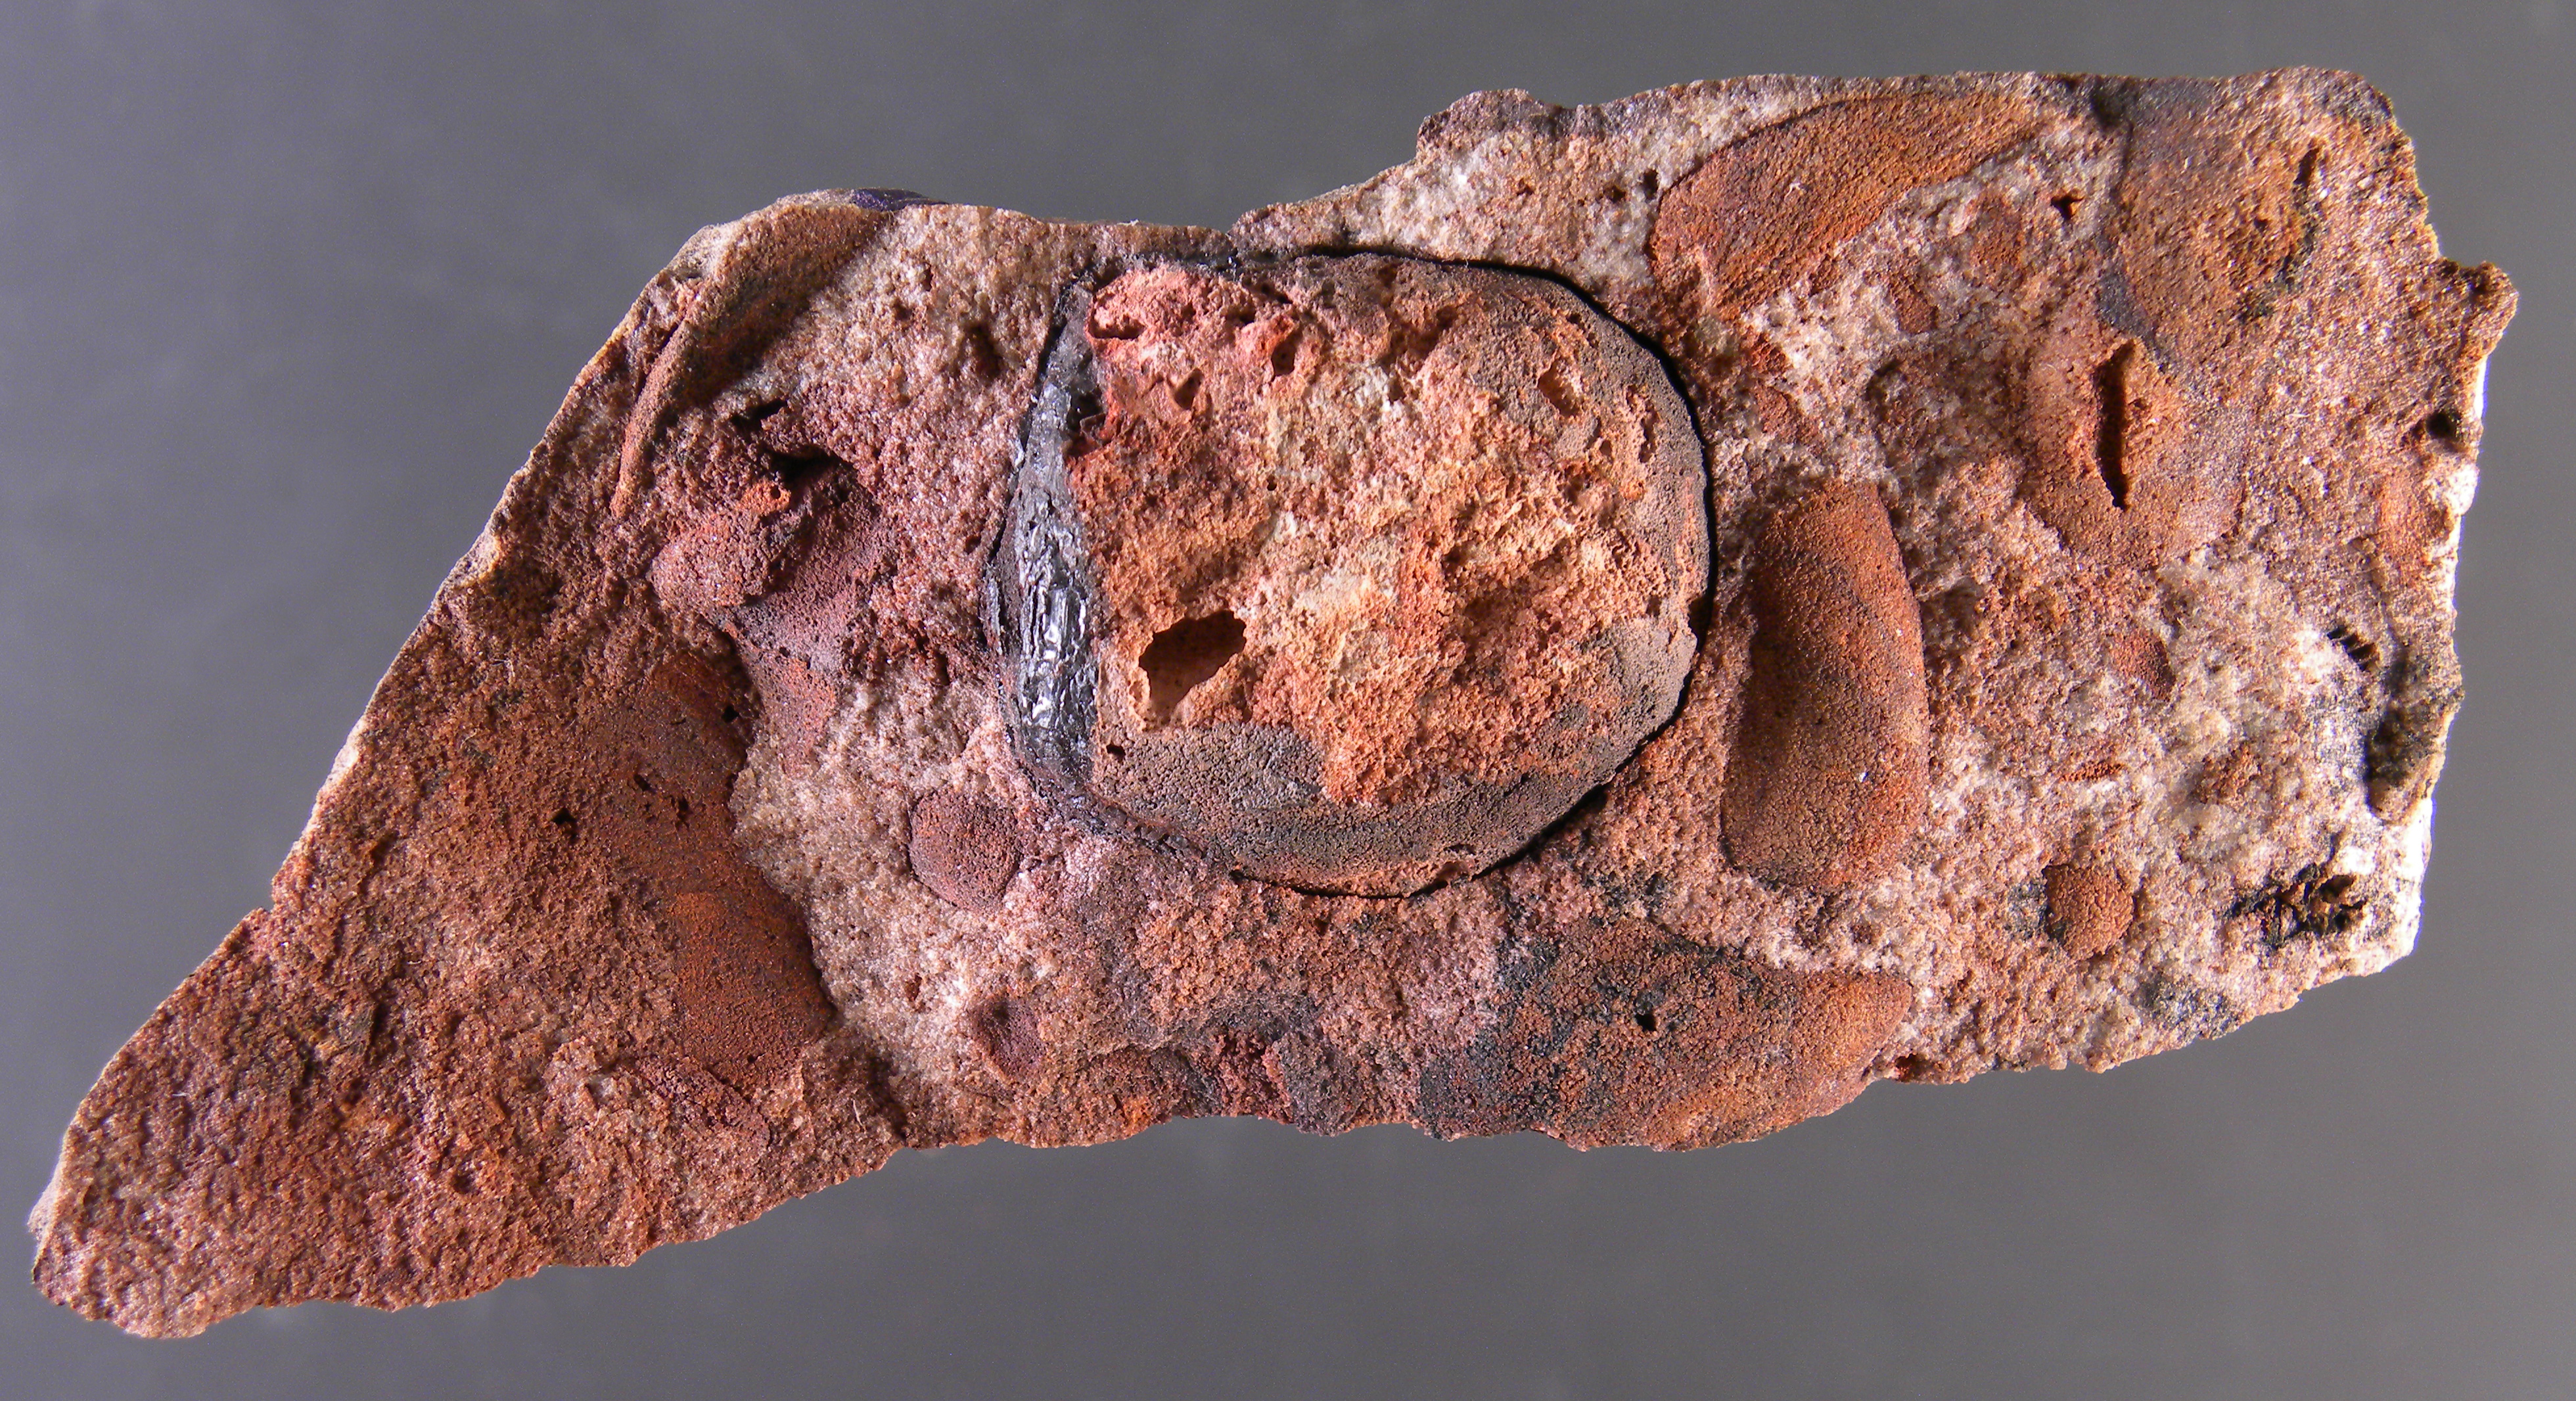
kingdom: Animalia
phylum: Brachiopoda
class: Lingulata
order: Lingulida
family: Discinidae
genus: Orbiculoidea
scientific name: Orbiculoidea
